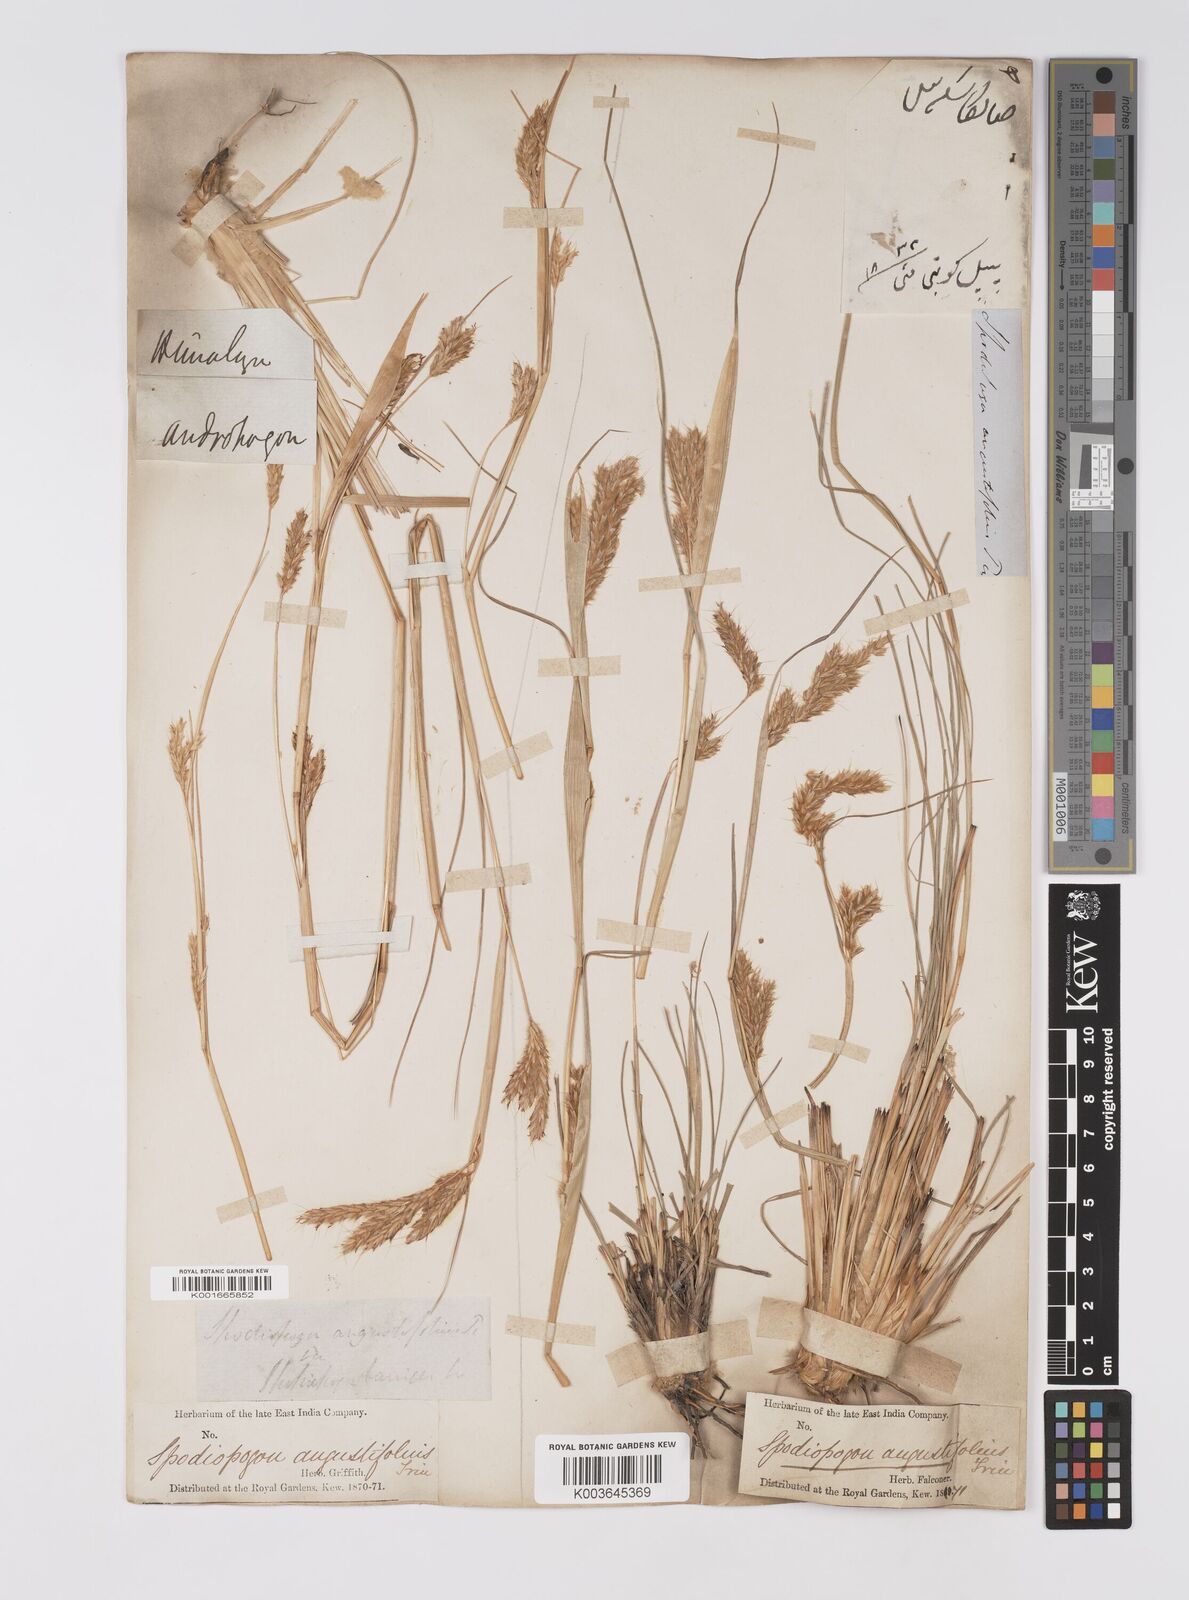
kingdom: Plantae
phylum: Tracheophyta
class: Liliopsida
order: Poales
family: Poaceae
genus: Eulaliopsis
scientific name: Eulaliopsis binata
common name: Baib grass
